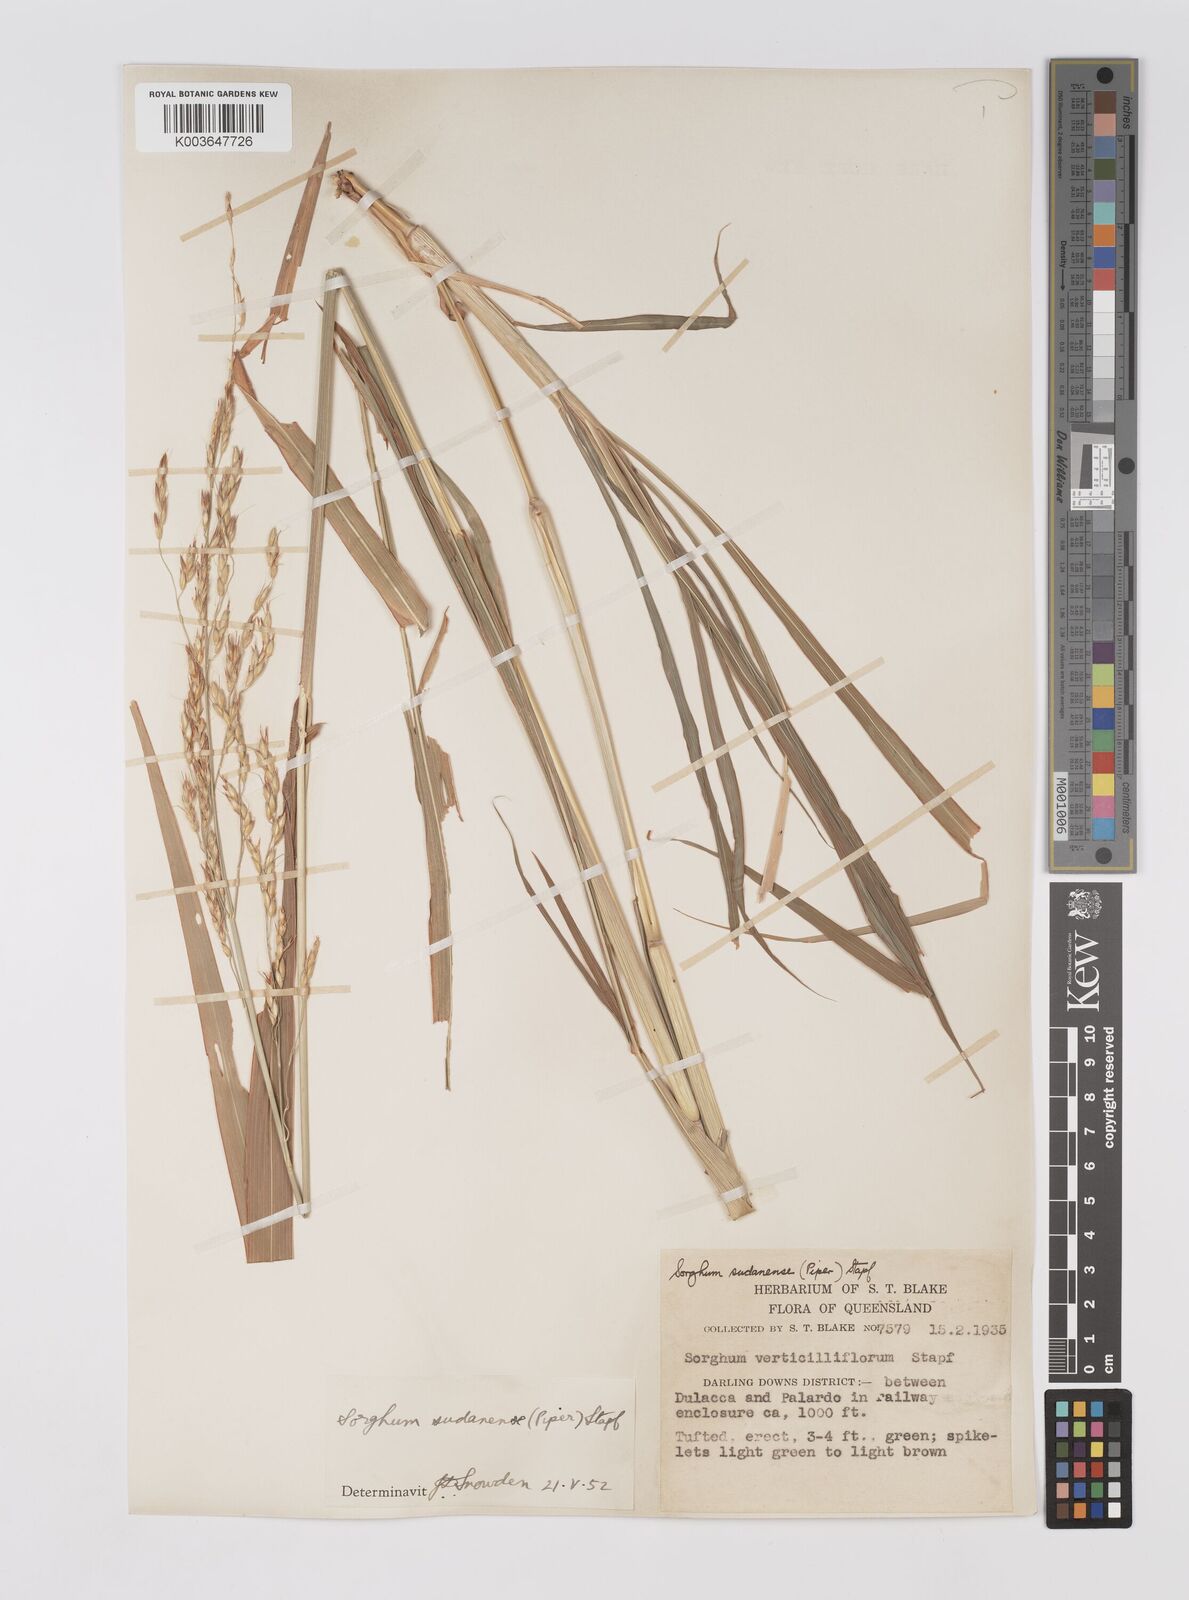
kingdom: Plantae
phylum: Tracheophyta
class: Liliopsida
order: Poales
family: Poaceae
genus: Sorghum
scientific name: Sorghum drummondii
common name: Sudangrass
